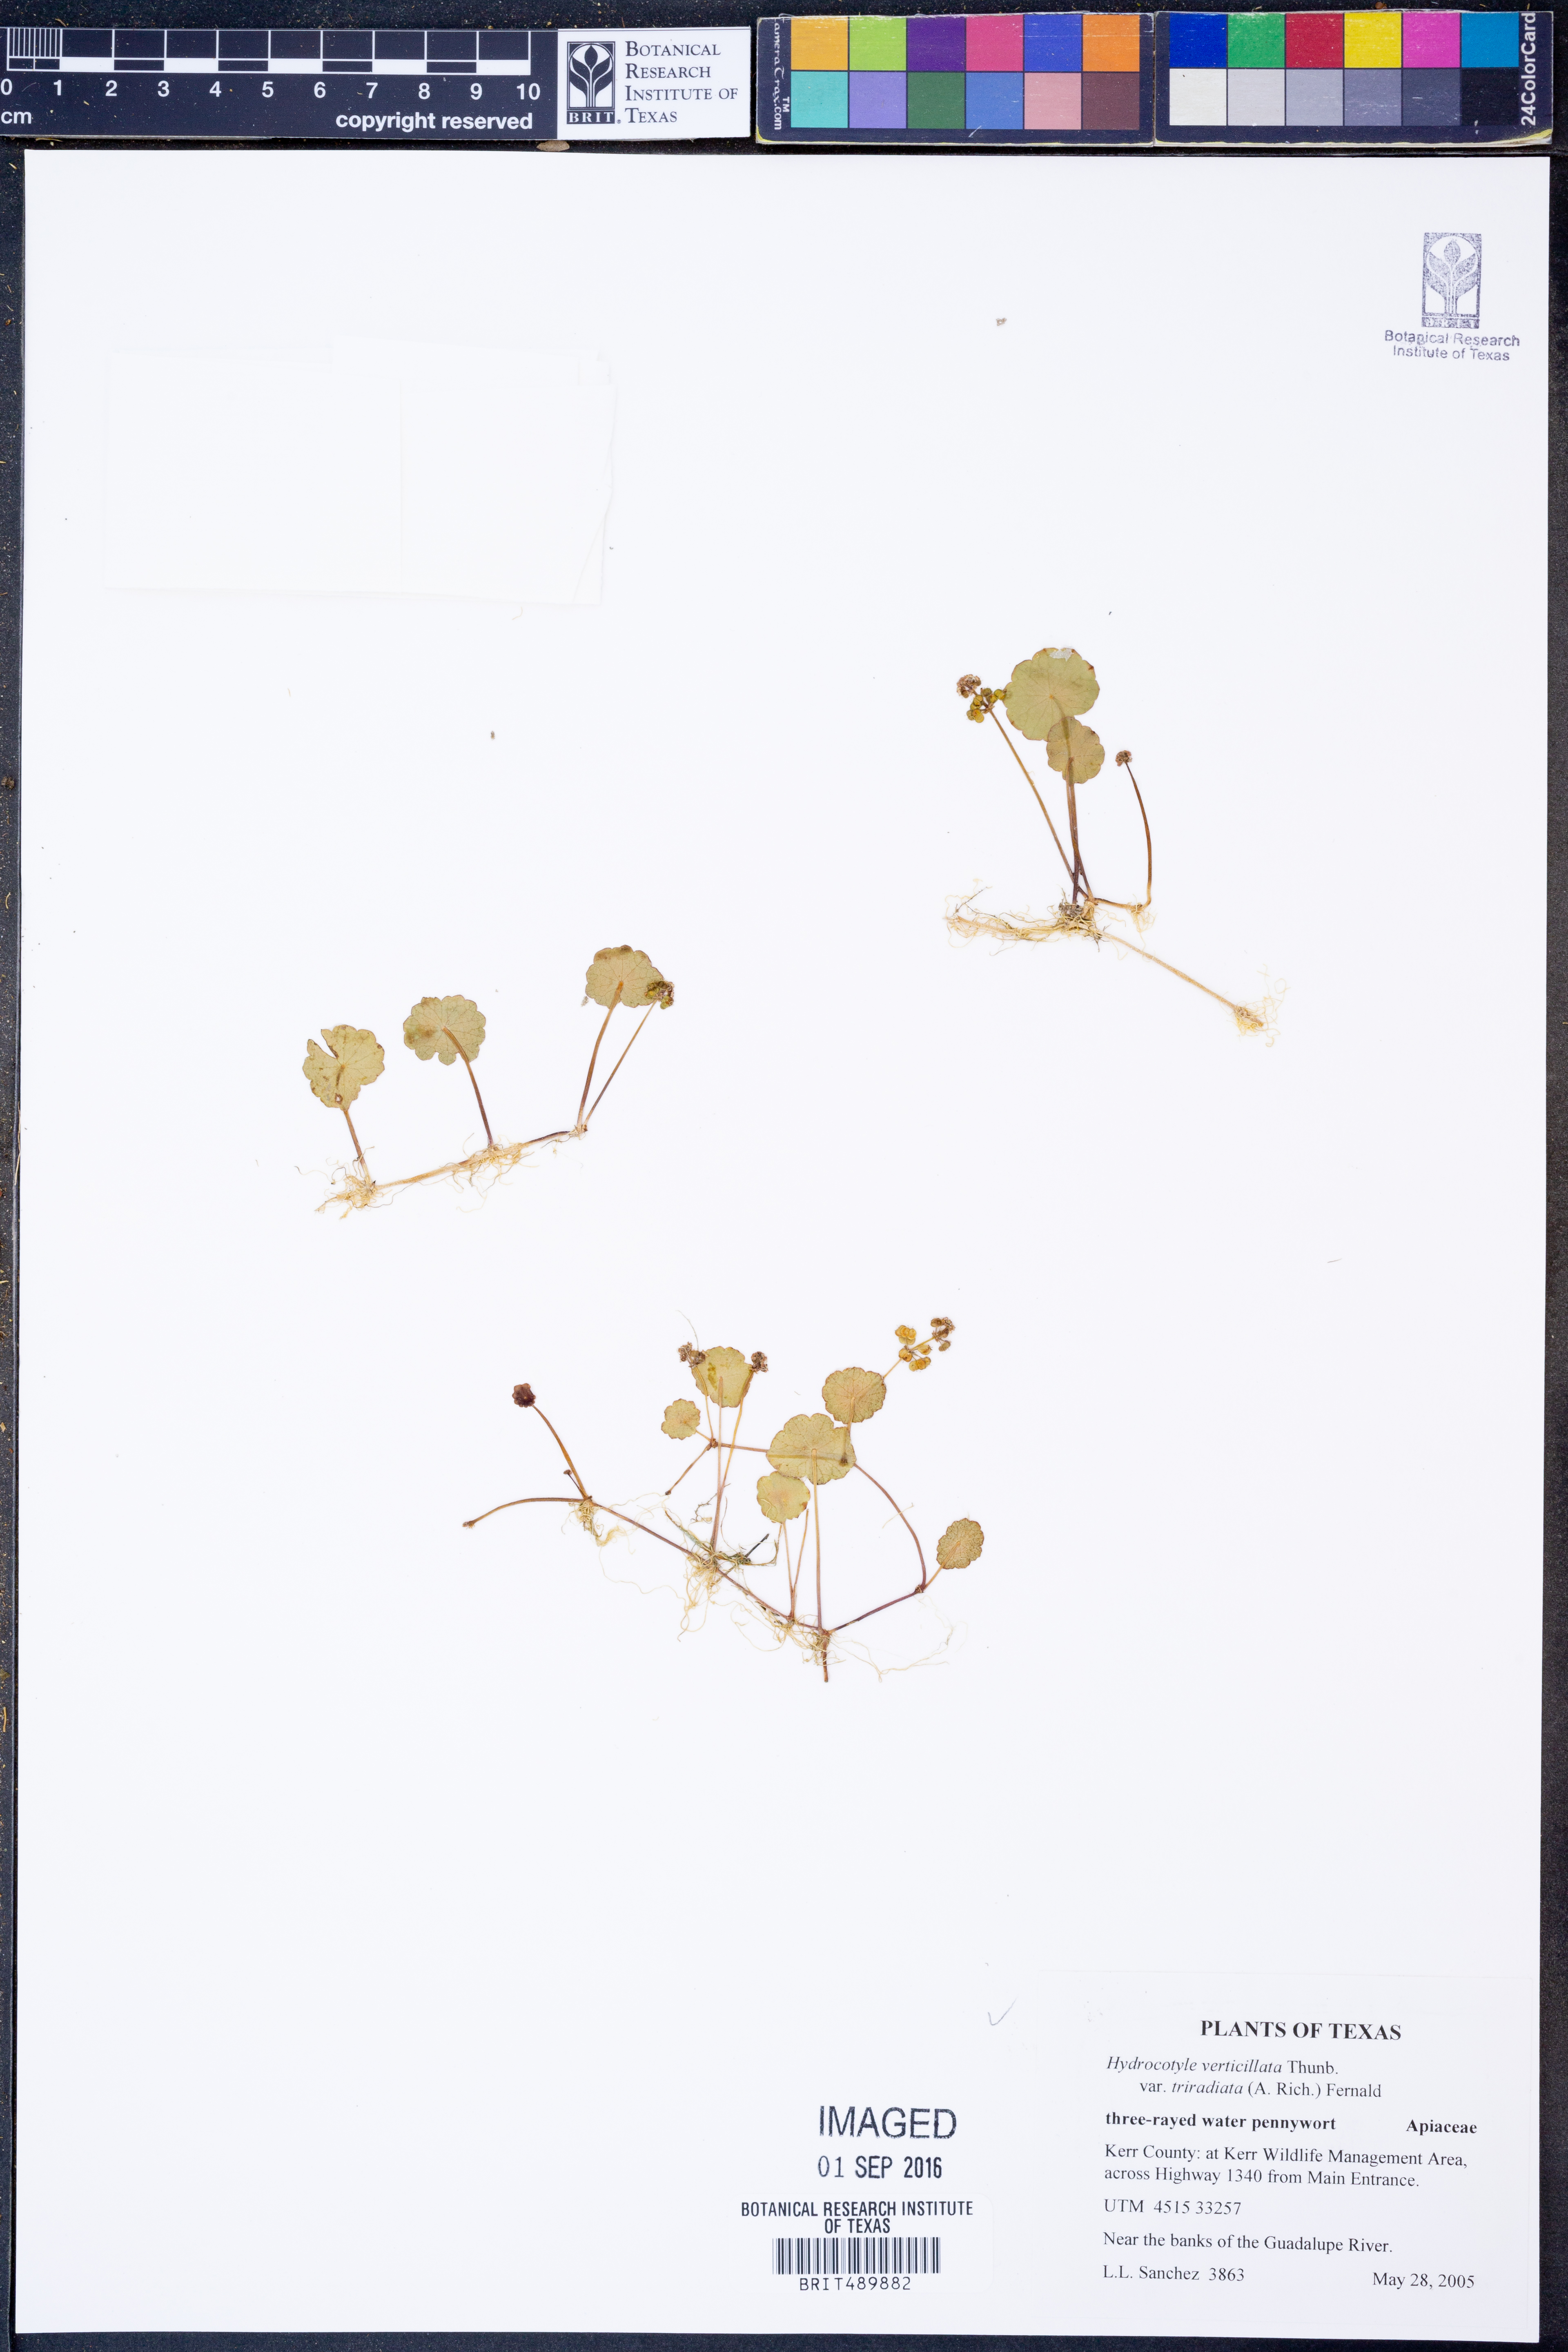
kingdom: Plantae
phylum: Tracheophyta
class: Magnoliopsida
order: Apiales
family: Araliaceae
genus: Hydrocotyle
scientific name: Hydrocotyle bonariensis
